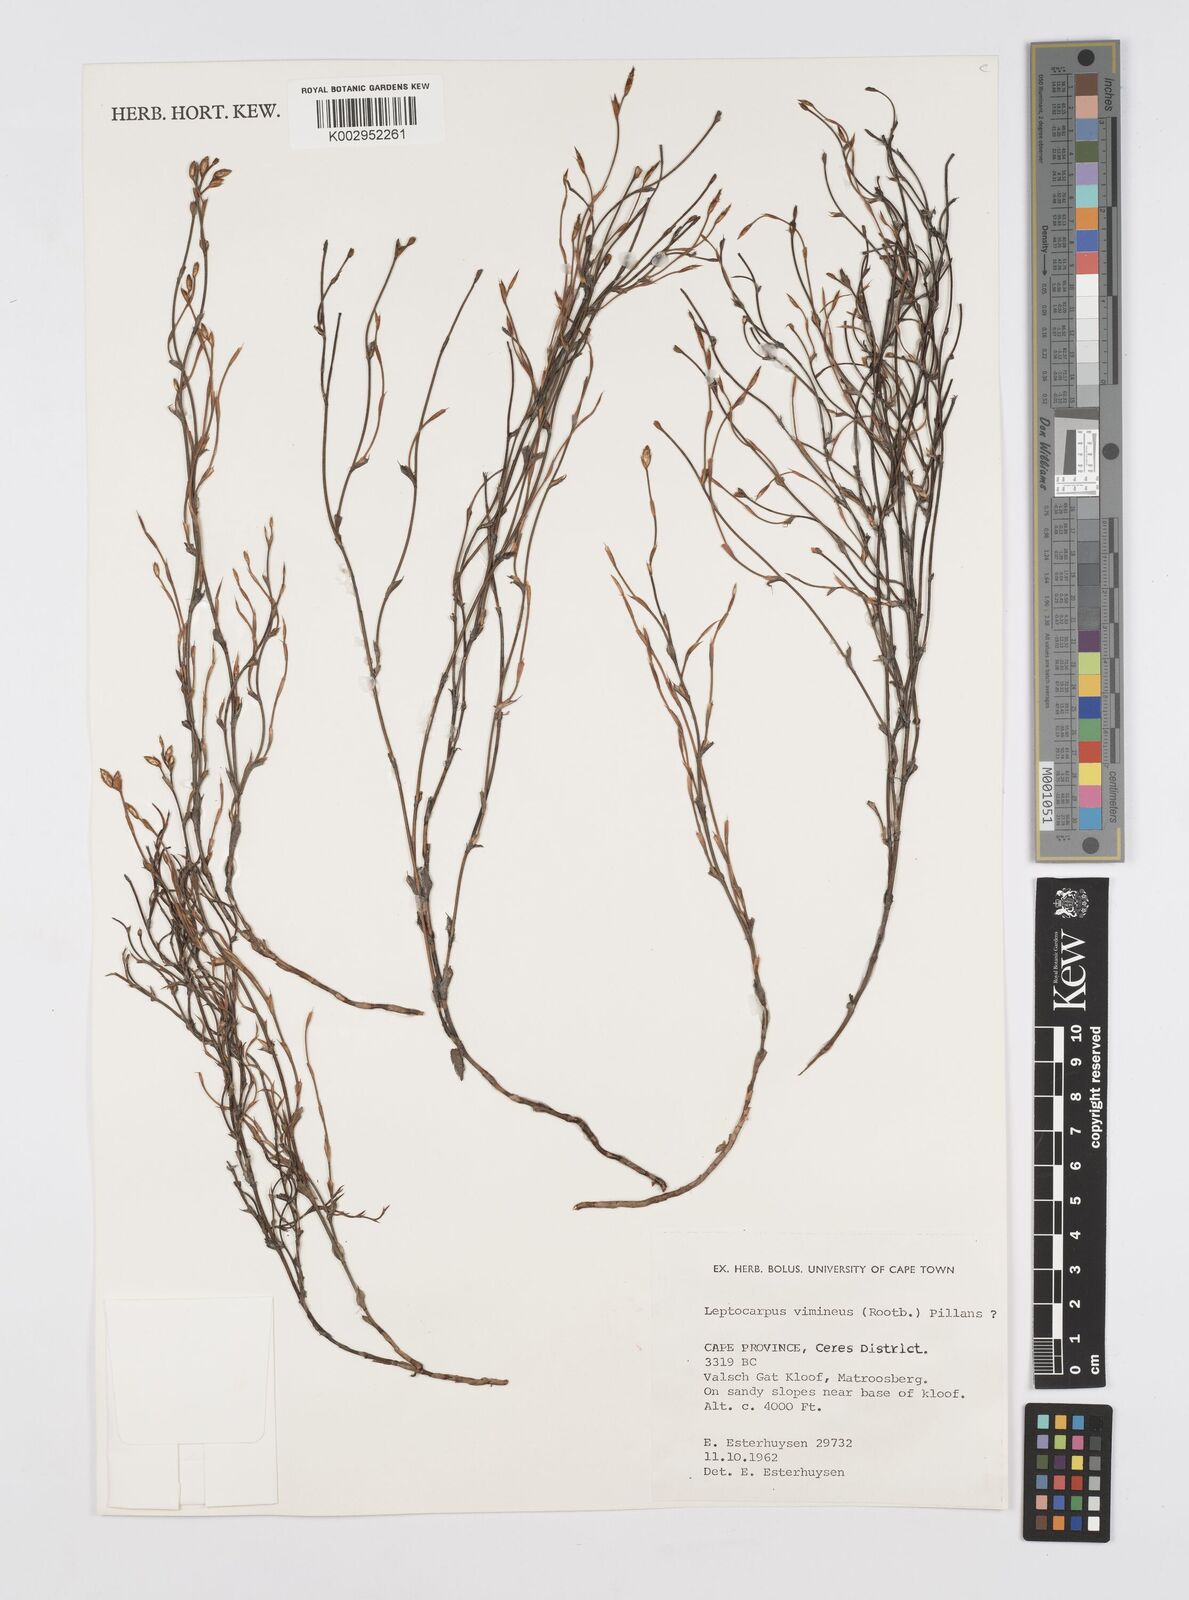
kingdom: Plantae
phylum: Tracheophyta
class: Liliopsida
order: Poales
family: Restionaceae
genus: Restio
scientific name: Restio vimineus
